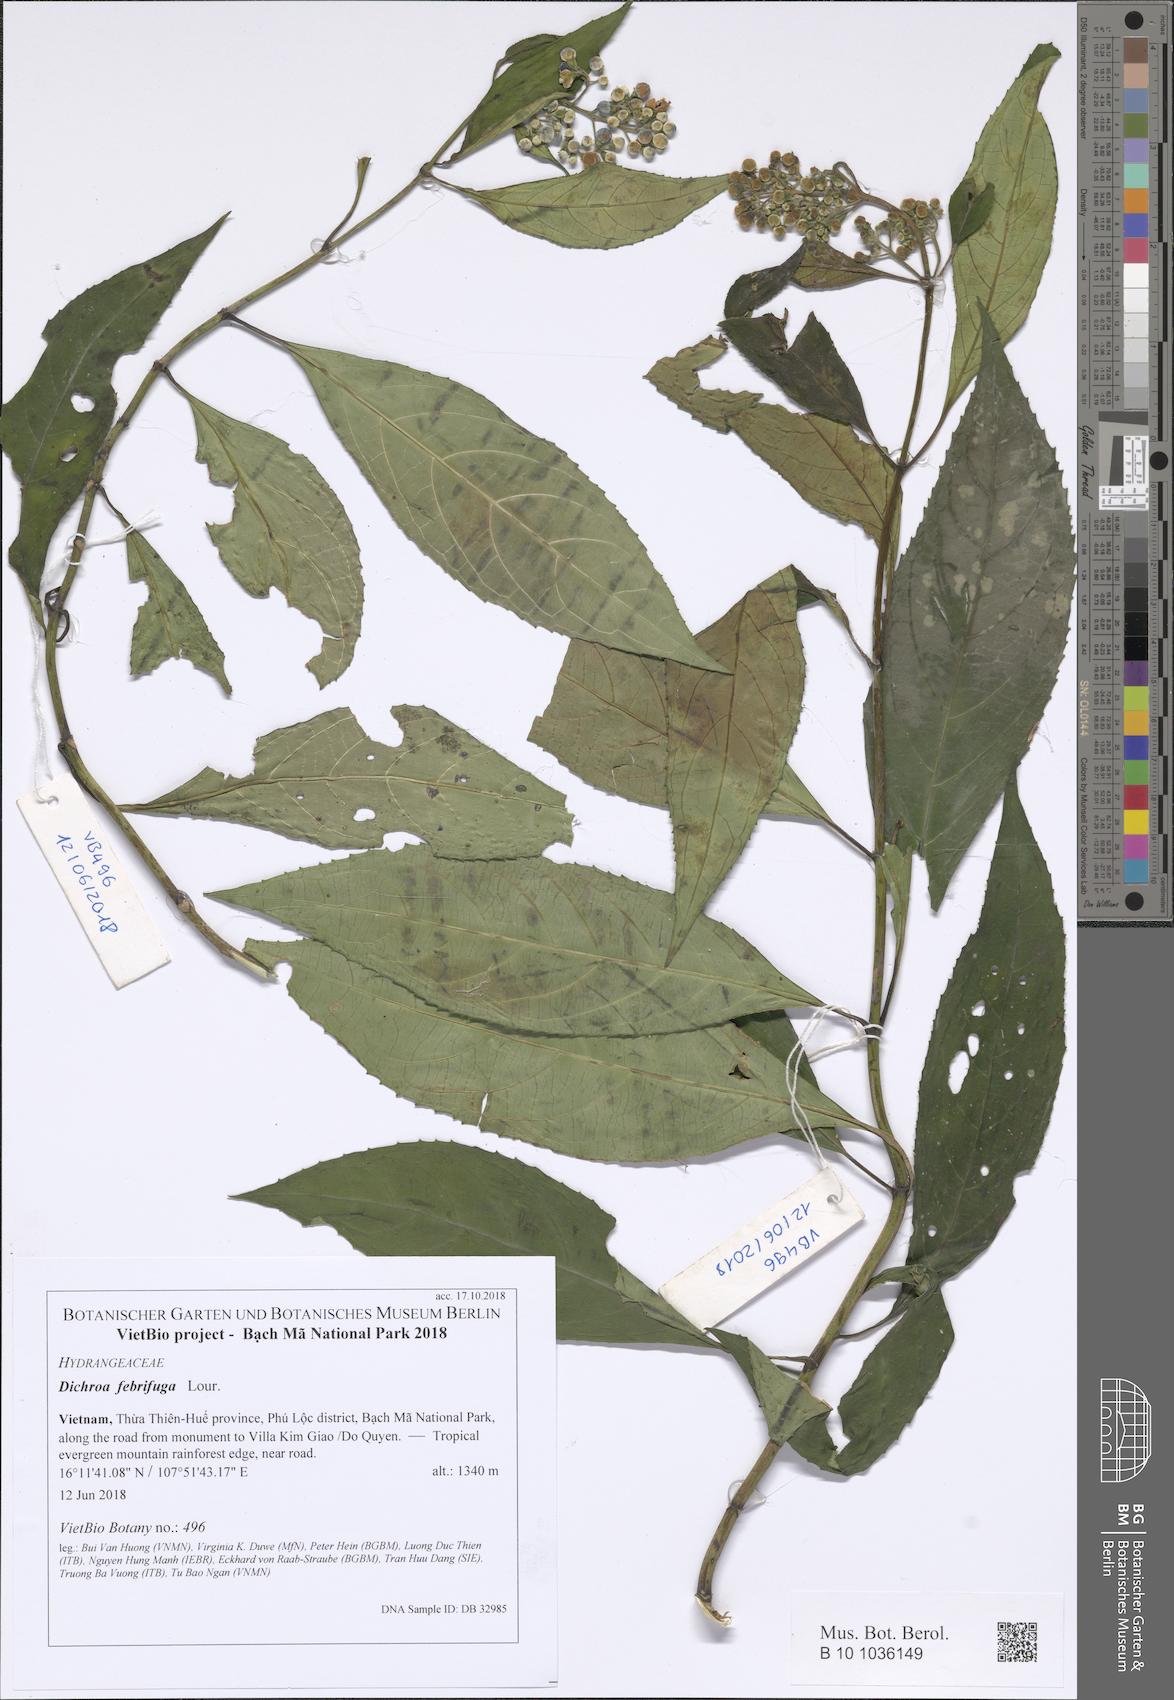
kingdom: Plantae
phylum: Tracheophyta
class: Magnoliopsida
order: Cornales
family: Hydrangeaceae
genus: Hydrangea
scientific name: Hydrangea febrifuga
